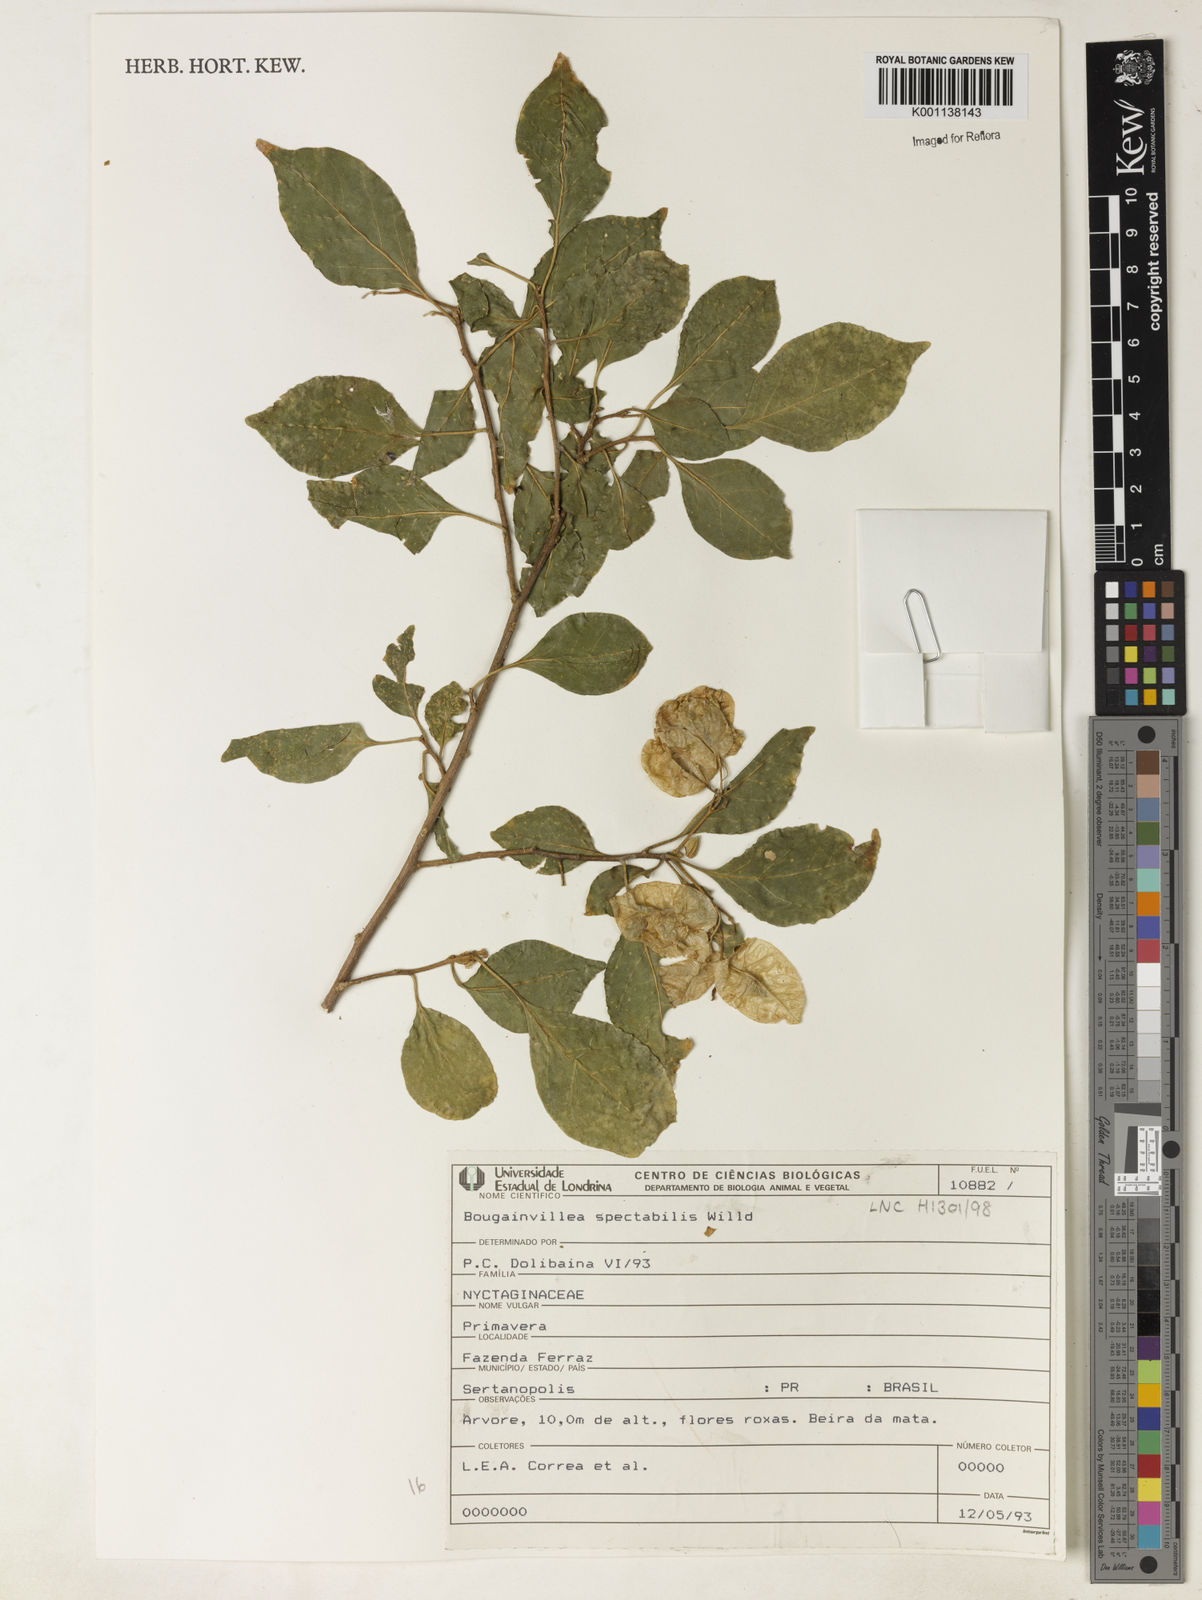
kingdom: Plantae
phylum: Tracheophyta
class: Magnoliopsida
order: Caryophyllales
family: Nyctaginaceae
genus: Bougainvillea
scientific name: Bougainvillea spectabilis
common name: Great bougainvillea
